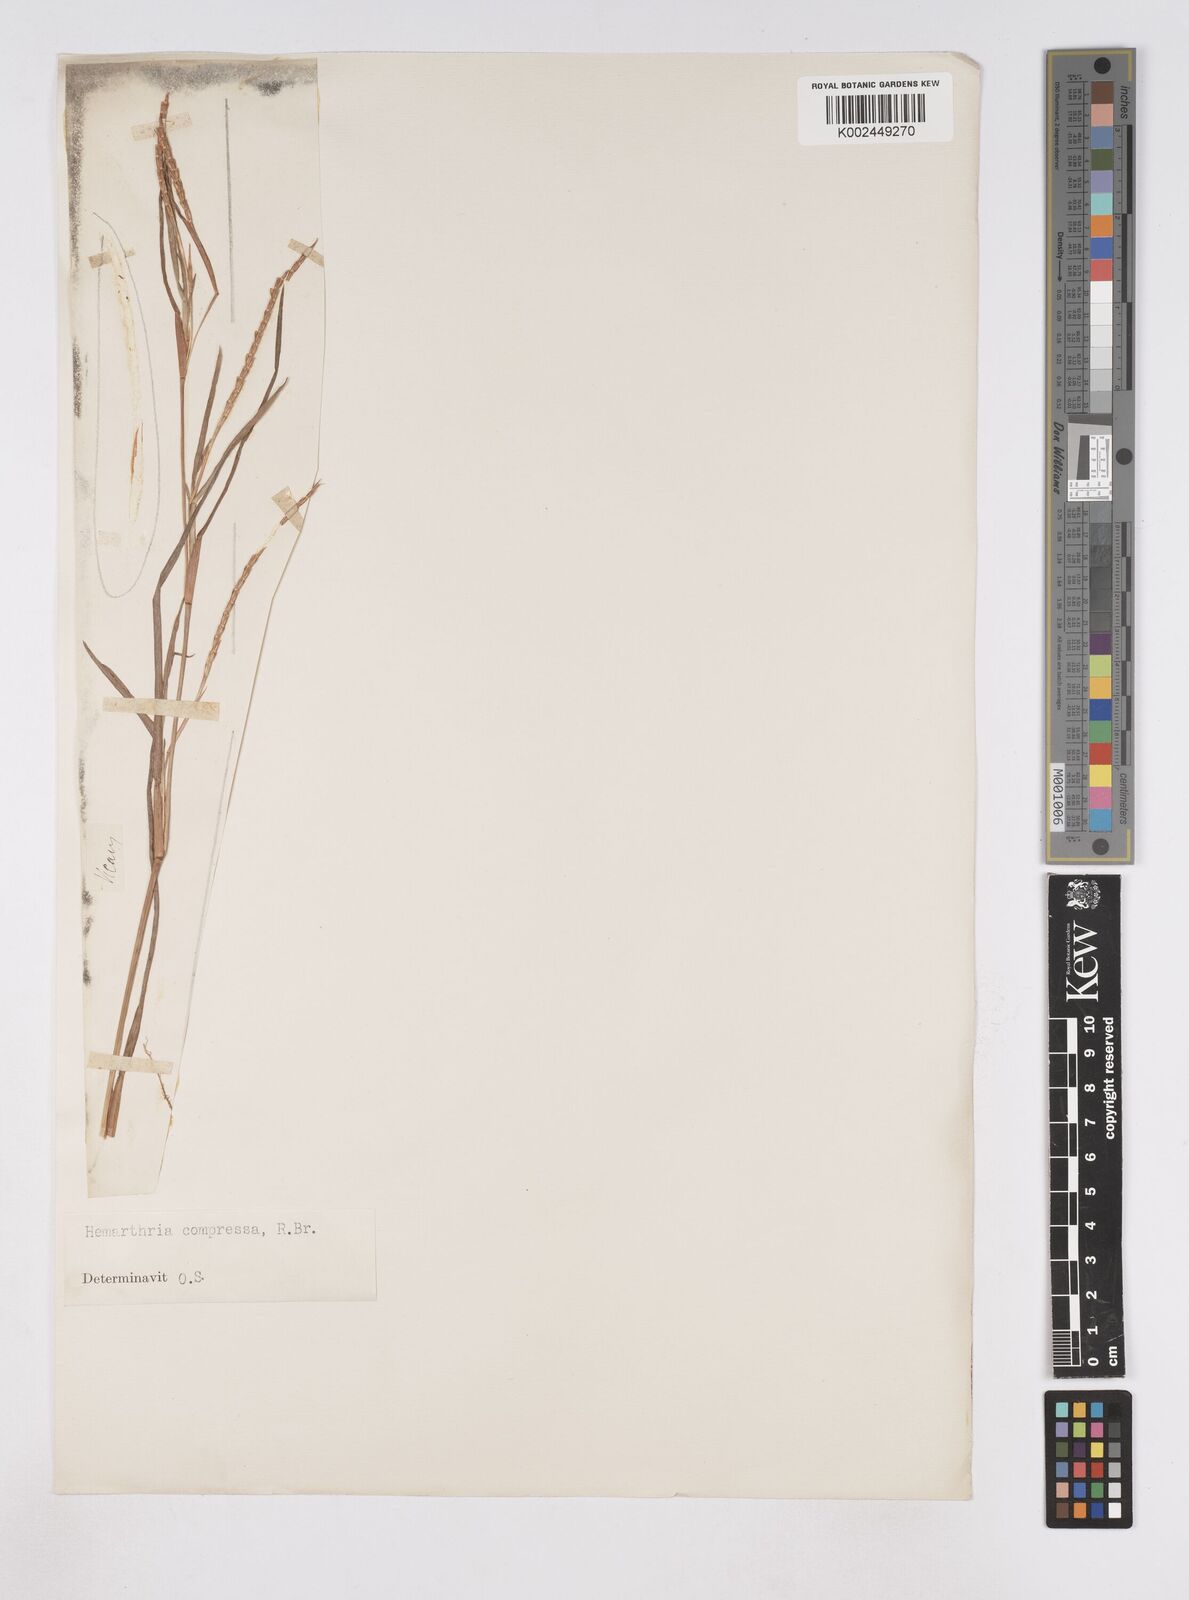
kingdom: Plantae
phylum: Tracheophyta
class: Liliopsida
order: Poales
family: Poaceae
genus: Hemarthria
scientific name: Hemarthria compressa
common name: Whip grass
